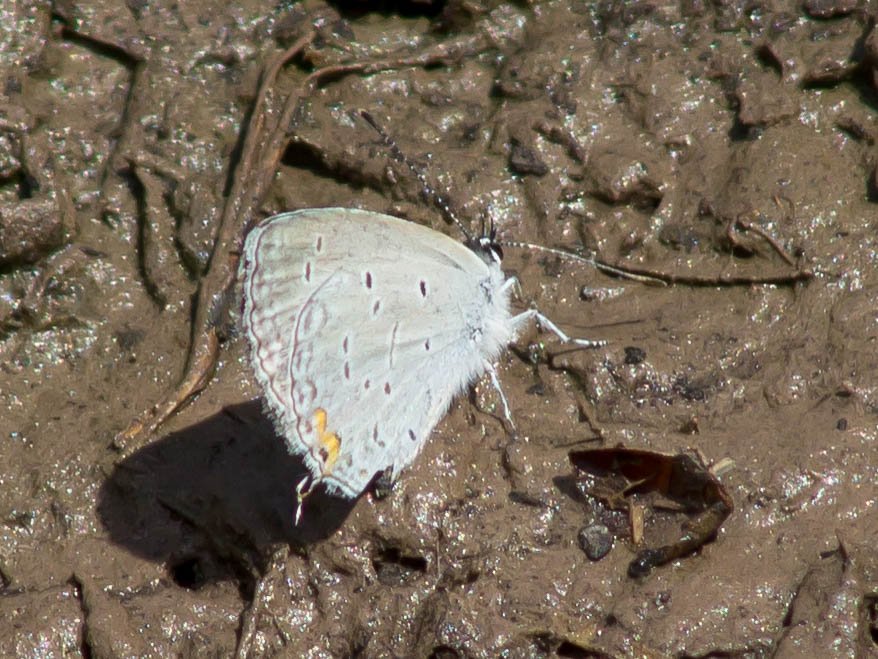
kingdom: Animalia
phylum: Arthropoda
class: Insecta
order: Lepidoptera
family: Lycaenidae
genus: Elkalyce
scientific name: Elkalyce comyntas
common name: Eastern Tailed-Blue
